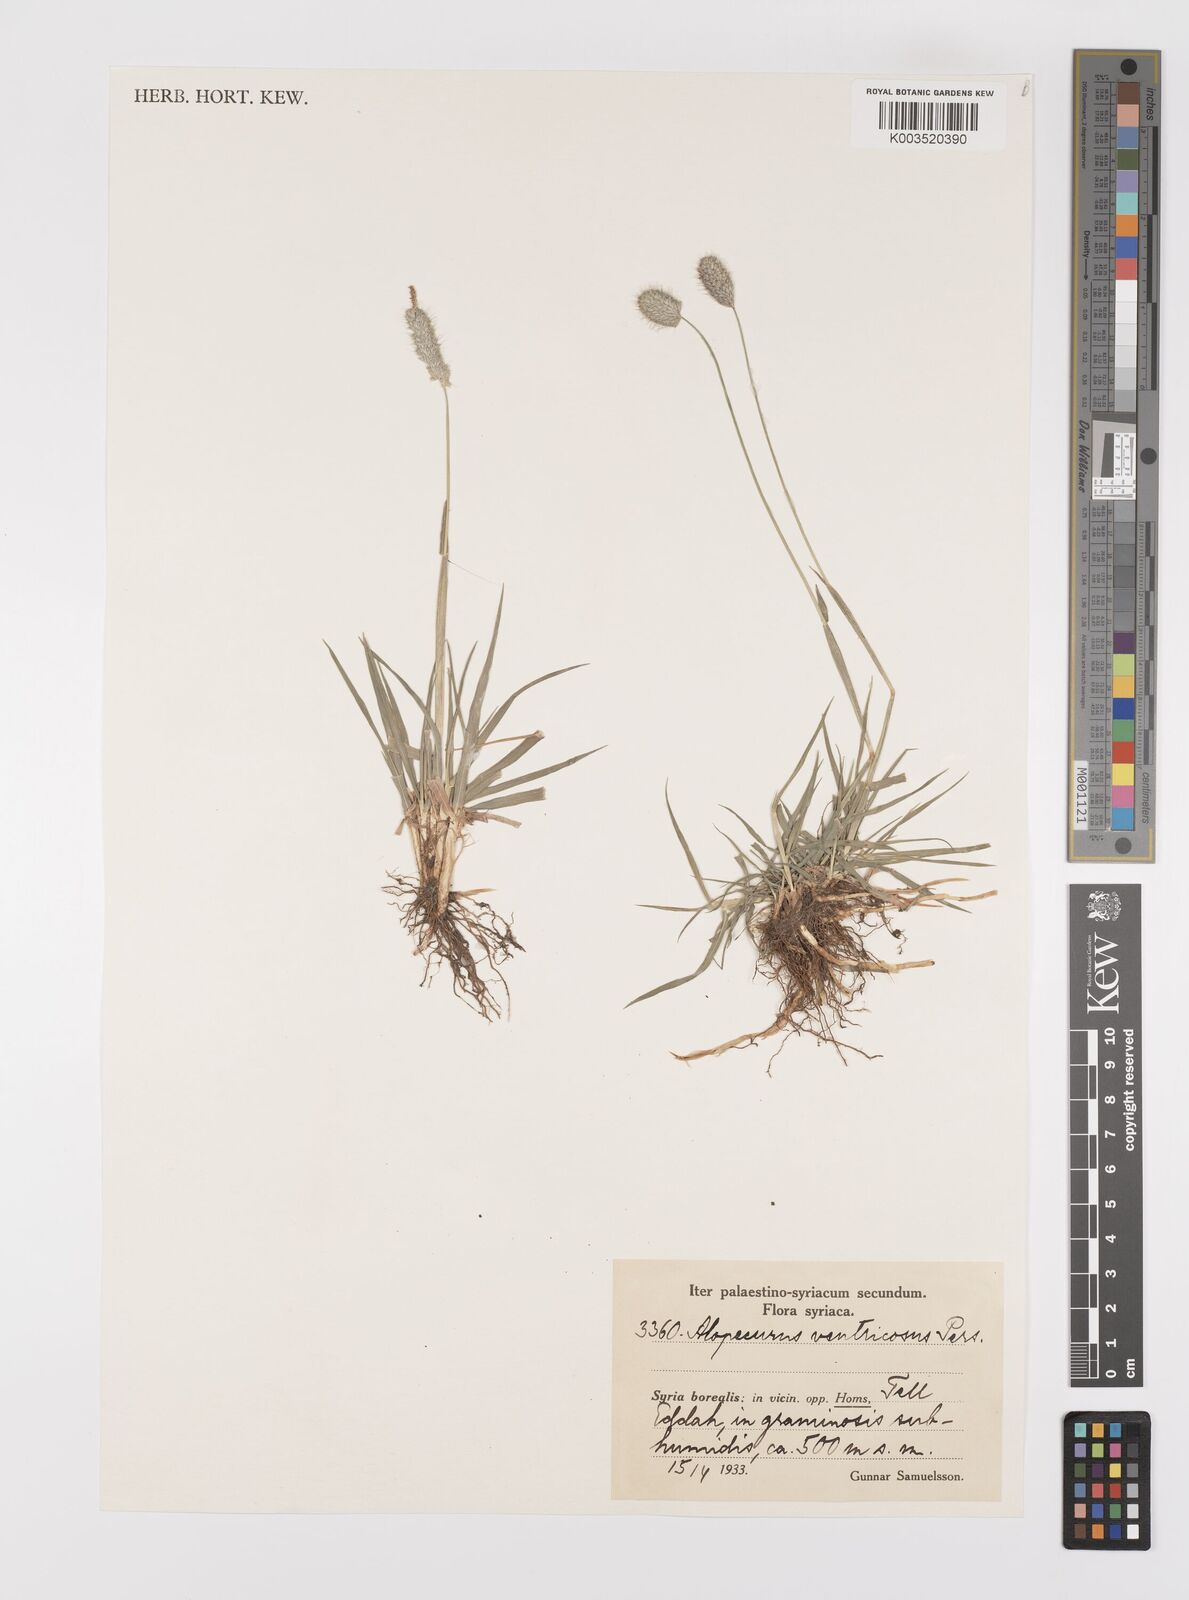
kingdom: Plantae
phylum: Tracheophyta
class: Liliopsida
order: Poales
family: Poaceae
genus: Alopecurus
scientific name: Alopecurus arundinaceus
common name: Creeping meadow foxtail
